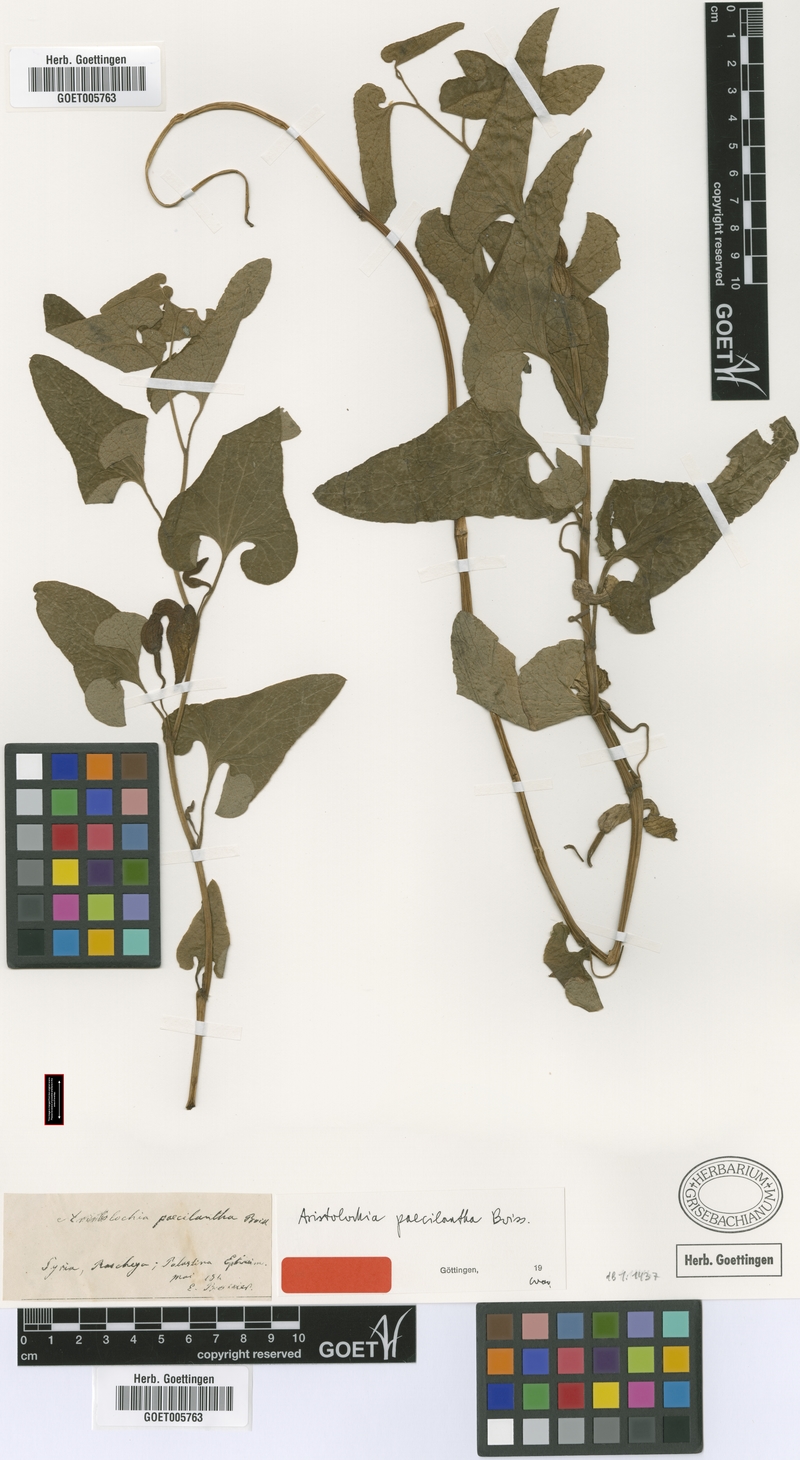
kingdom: Plantae
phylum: Tracheophyta
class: Magnoliopsida
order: Piperales
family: Aristolochiaceae
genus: Aristolochia
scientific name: Aristolochia paecilantha
